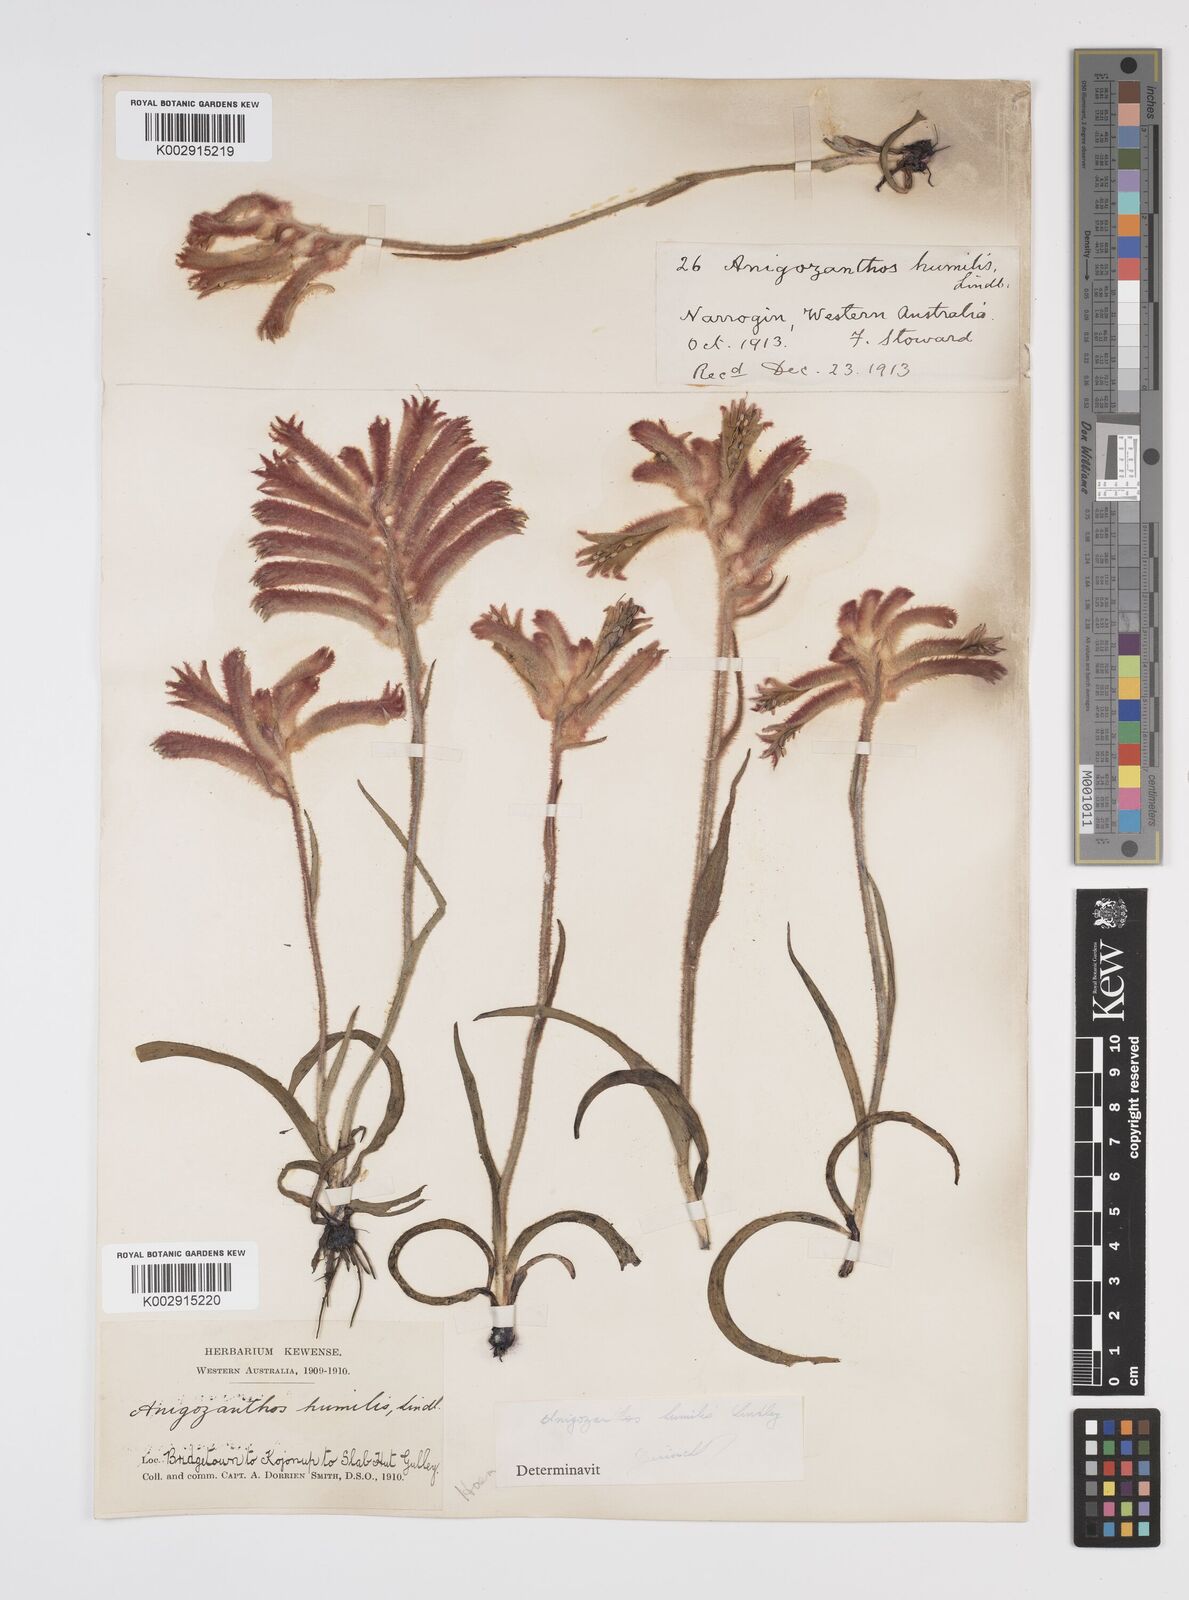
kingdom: Plantae
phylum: Tracheophyta
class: Liliopsida
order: Commelinales
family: Haemodoraceae
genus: Anigozanthos
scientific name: Anigozanthos humilis
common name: Cat's-paw
